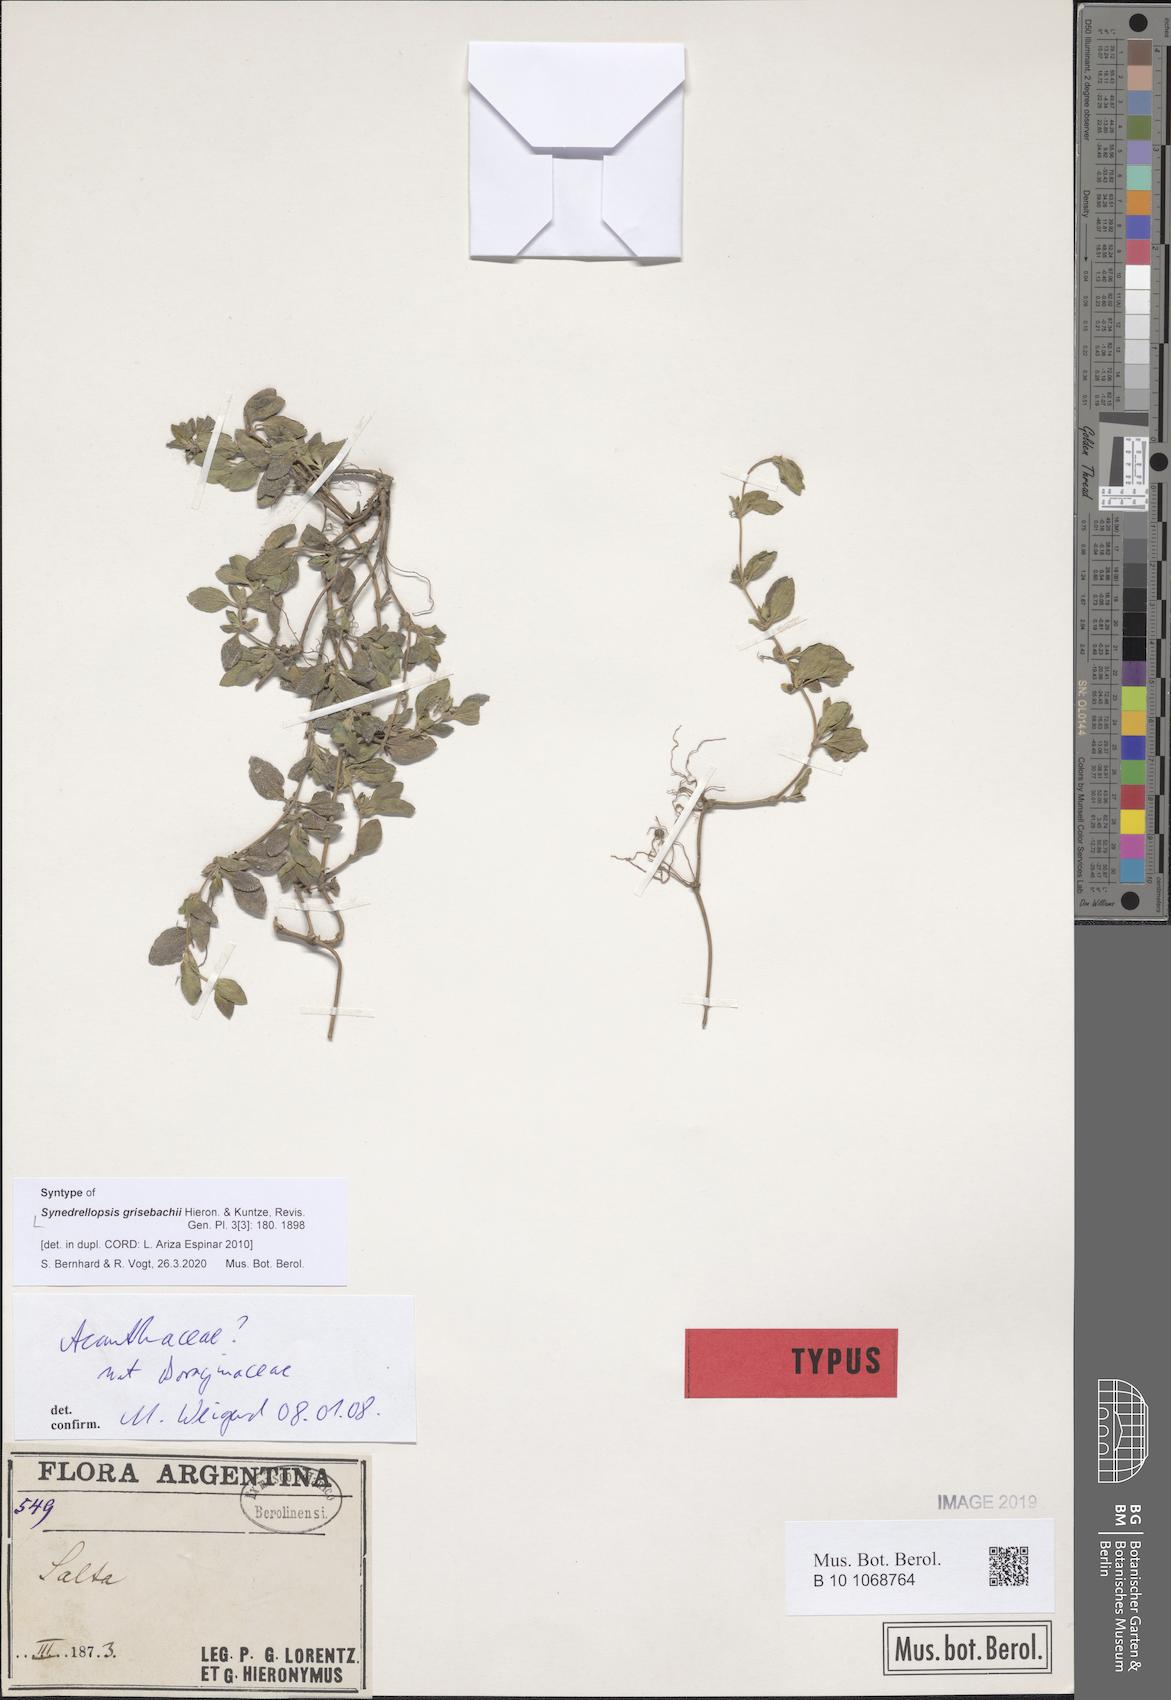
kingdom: Plantae
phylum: Tracheophyta
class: Magnoliopsida
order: Asterales
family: Asteraceae
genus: Synedrellopsis
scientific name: Synedrellopsis grisebachii
